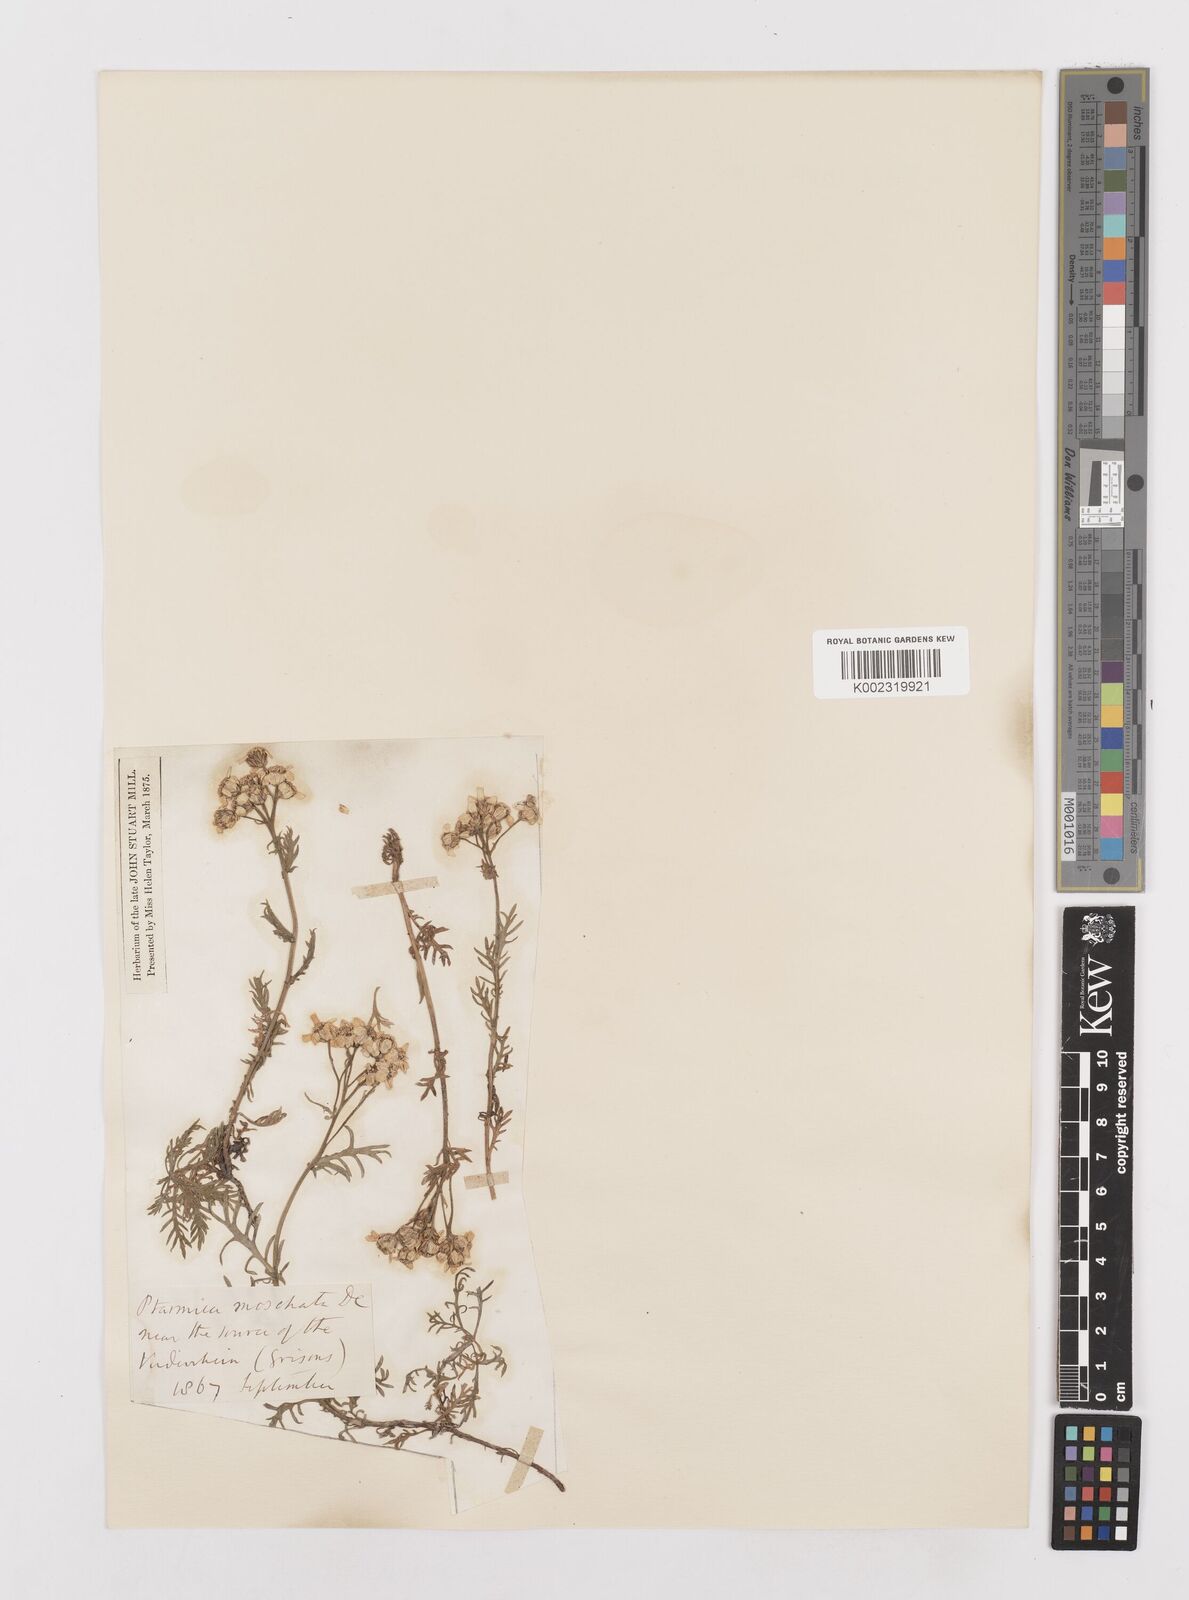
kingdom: Plantae
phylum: Tracheophyta
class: Magnoliopsida
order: Asterales
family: Asteraceae
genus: Achillea
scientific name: Achillea erba-rotta
